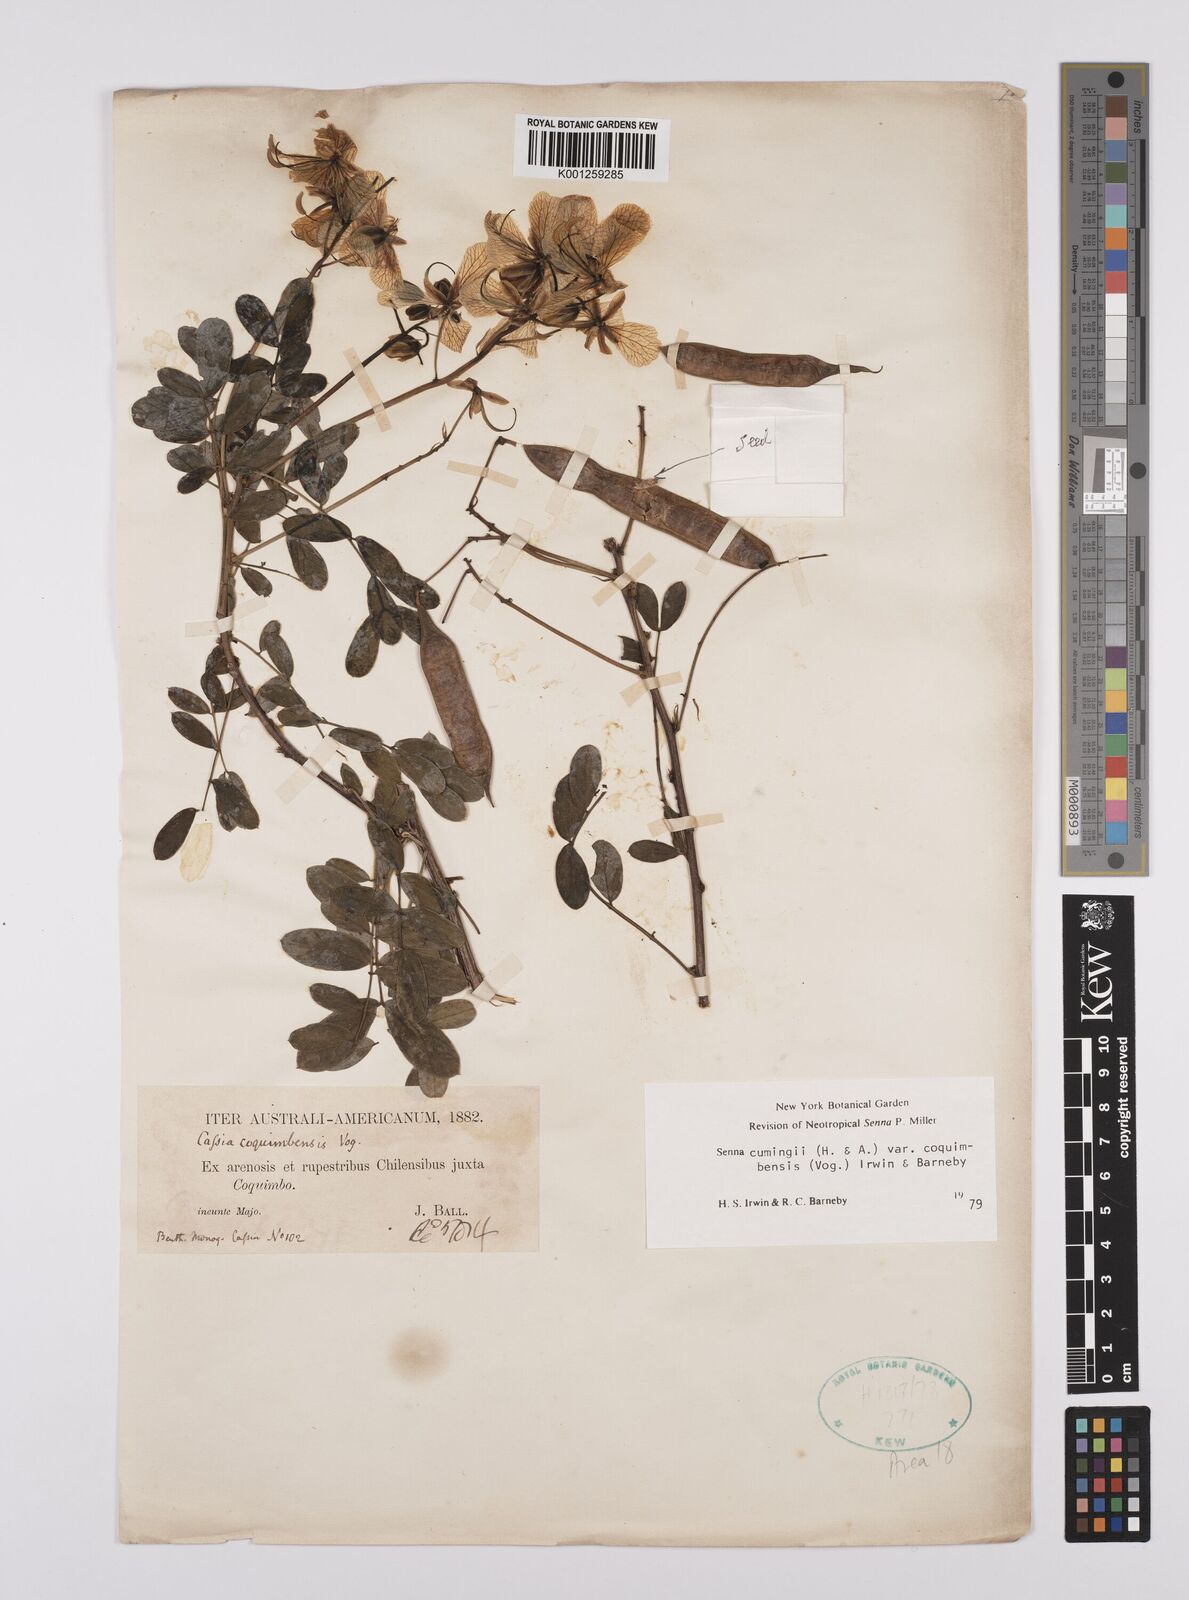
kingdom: Plantae
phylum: Tracheophyta
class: Magnoliopsida
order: Fabales
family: Fabaceae
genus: Senna
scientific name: Senna cumingii
